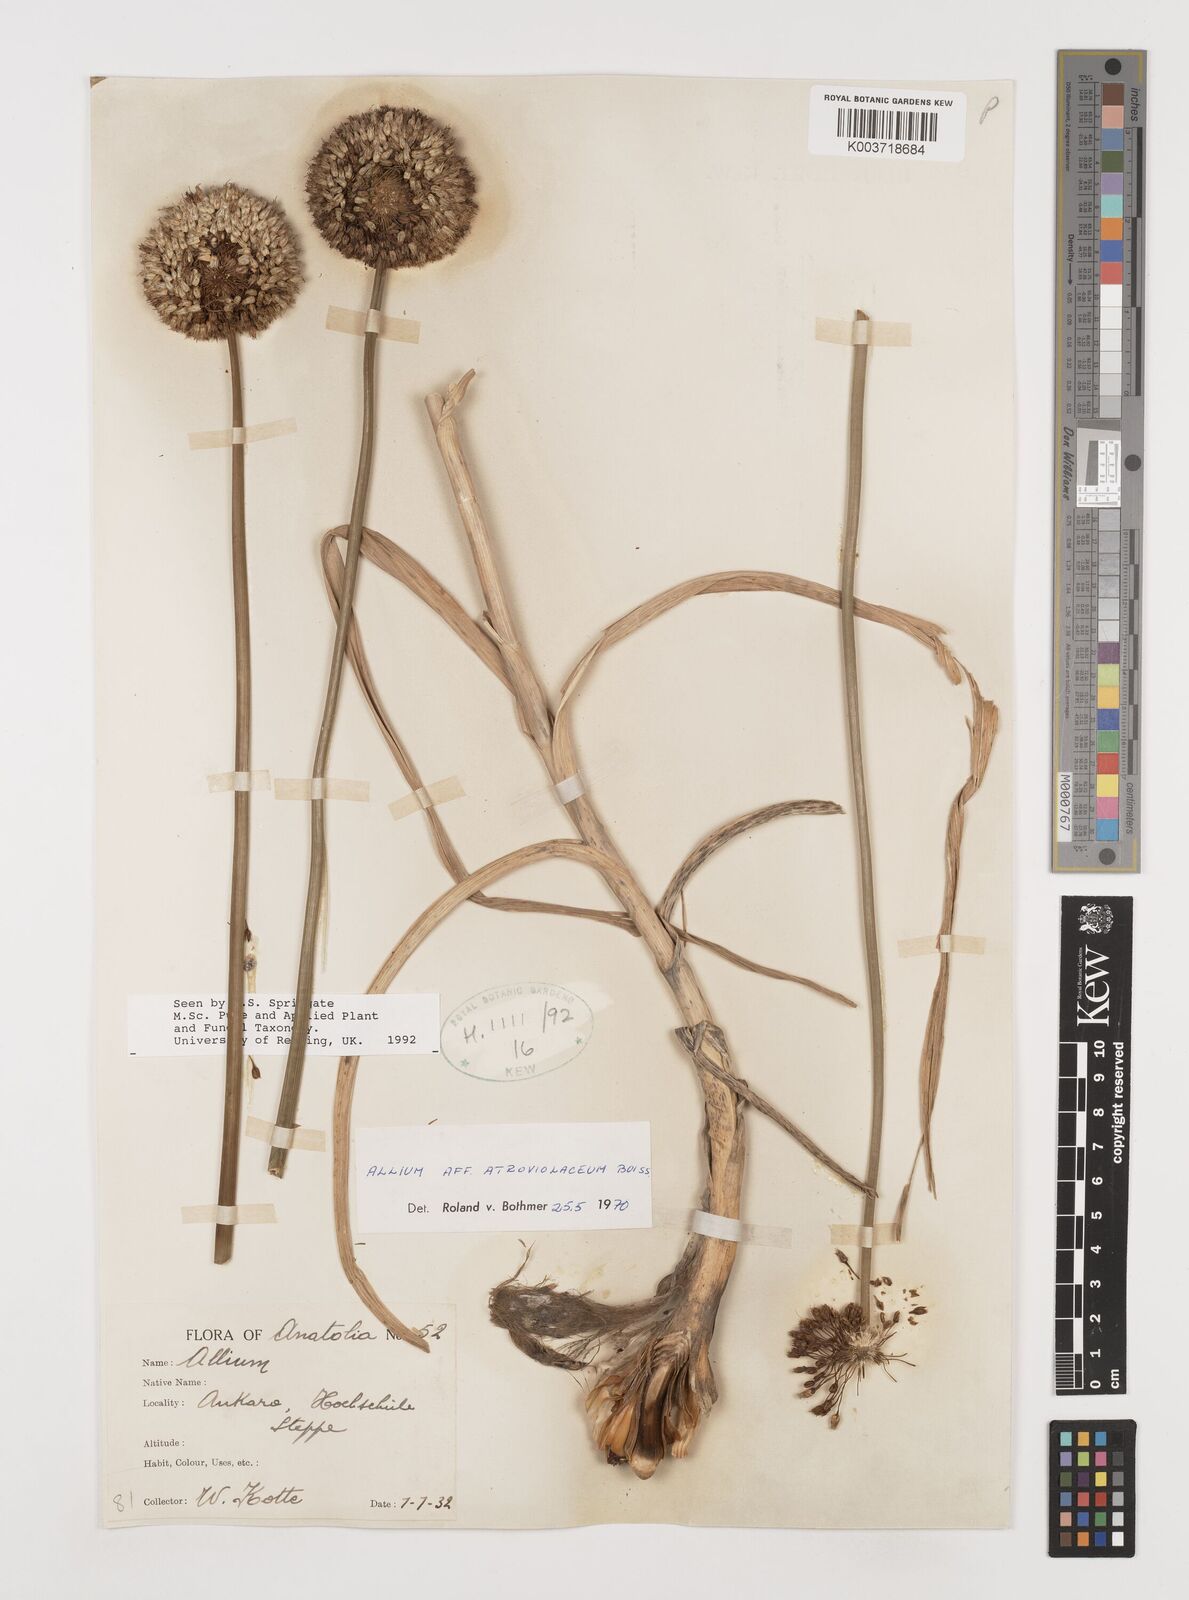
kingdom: Plantae
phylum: Tracheophyta
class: Liliopsida
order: Asparagales
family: Amaryllidaceae
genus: Allium
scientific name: Allium atroviolaceum
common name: Broadleaf wild leek
